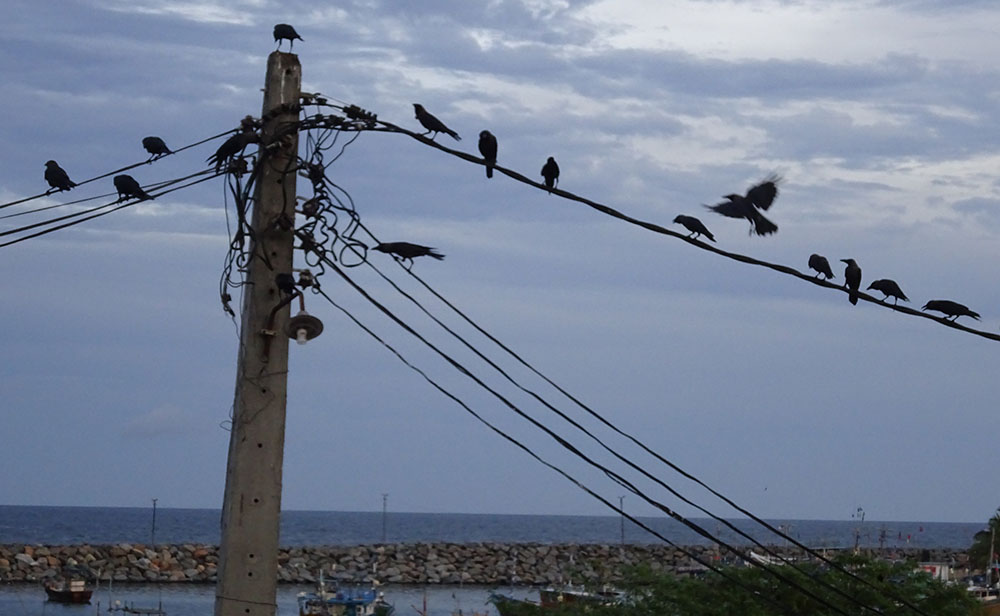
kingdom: Animalia
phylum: Chordata
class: Aves
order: Passeriformes
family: Corvidae
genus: Corvus
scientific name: Corvus splendens
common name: House crow
